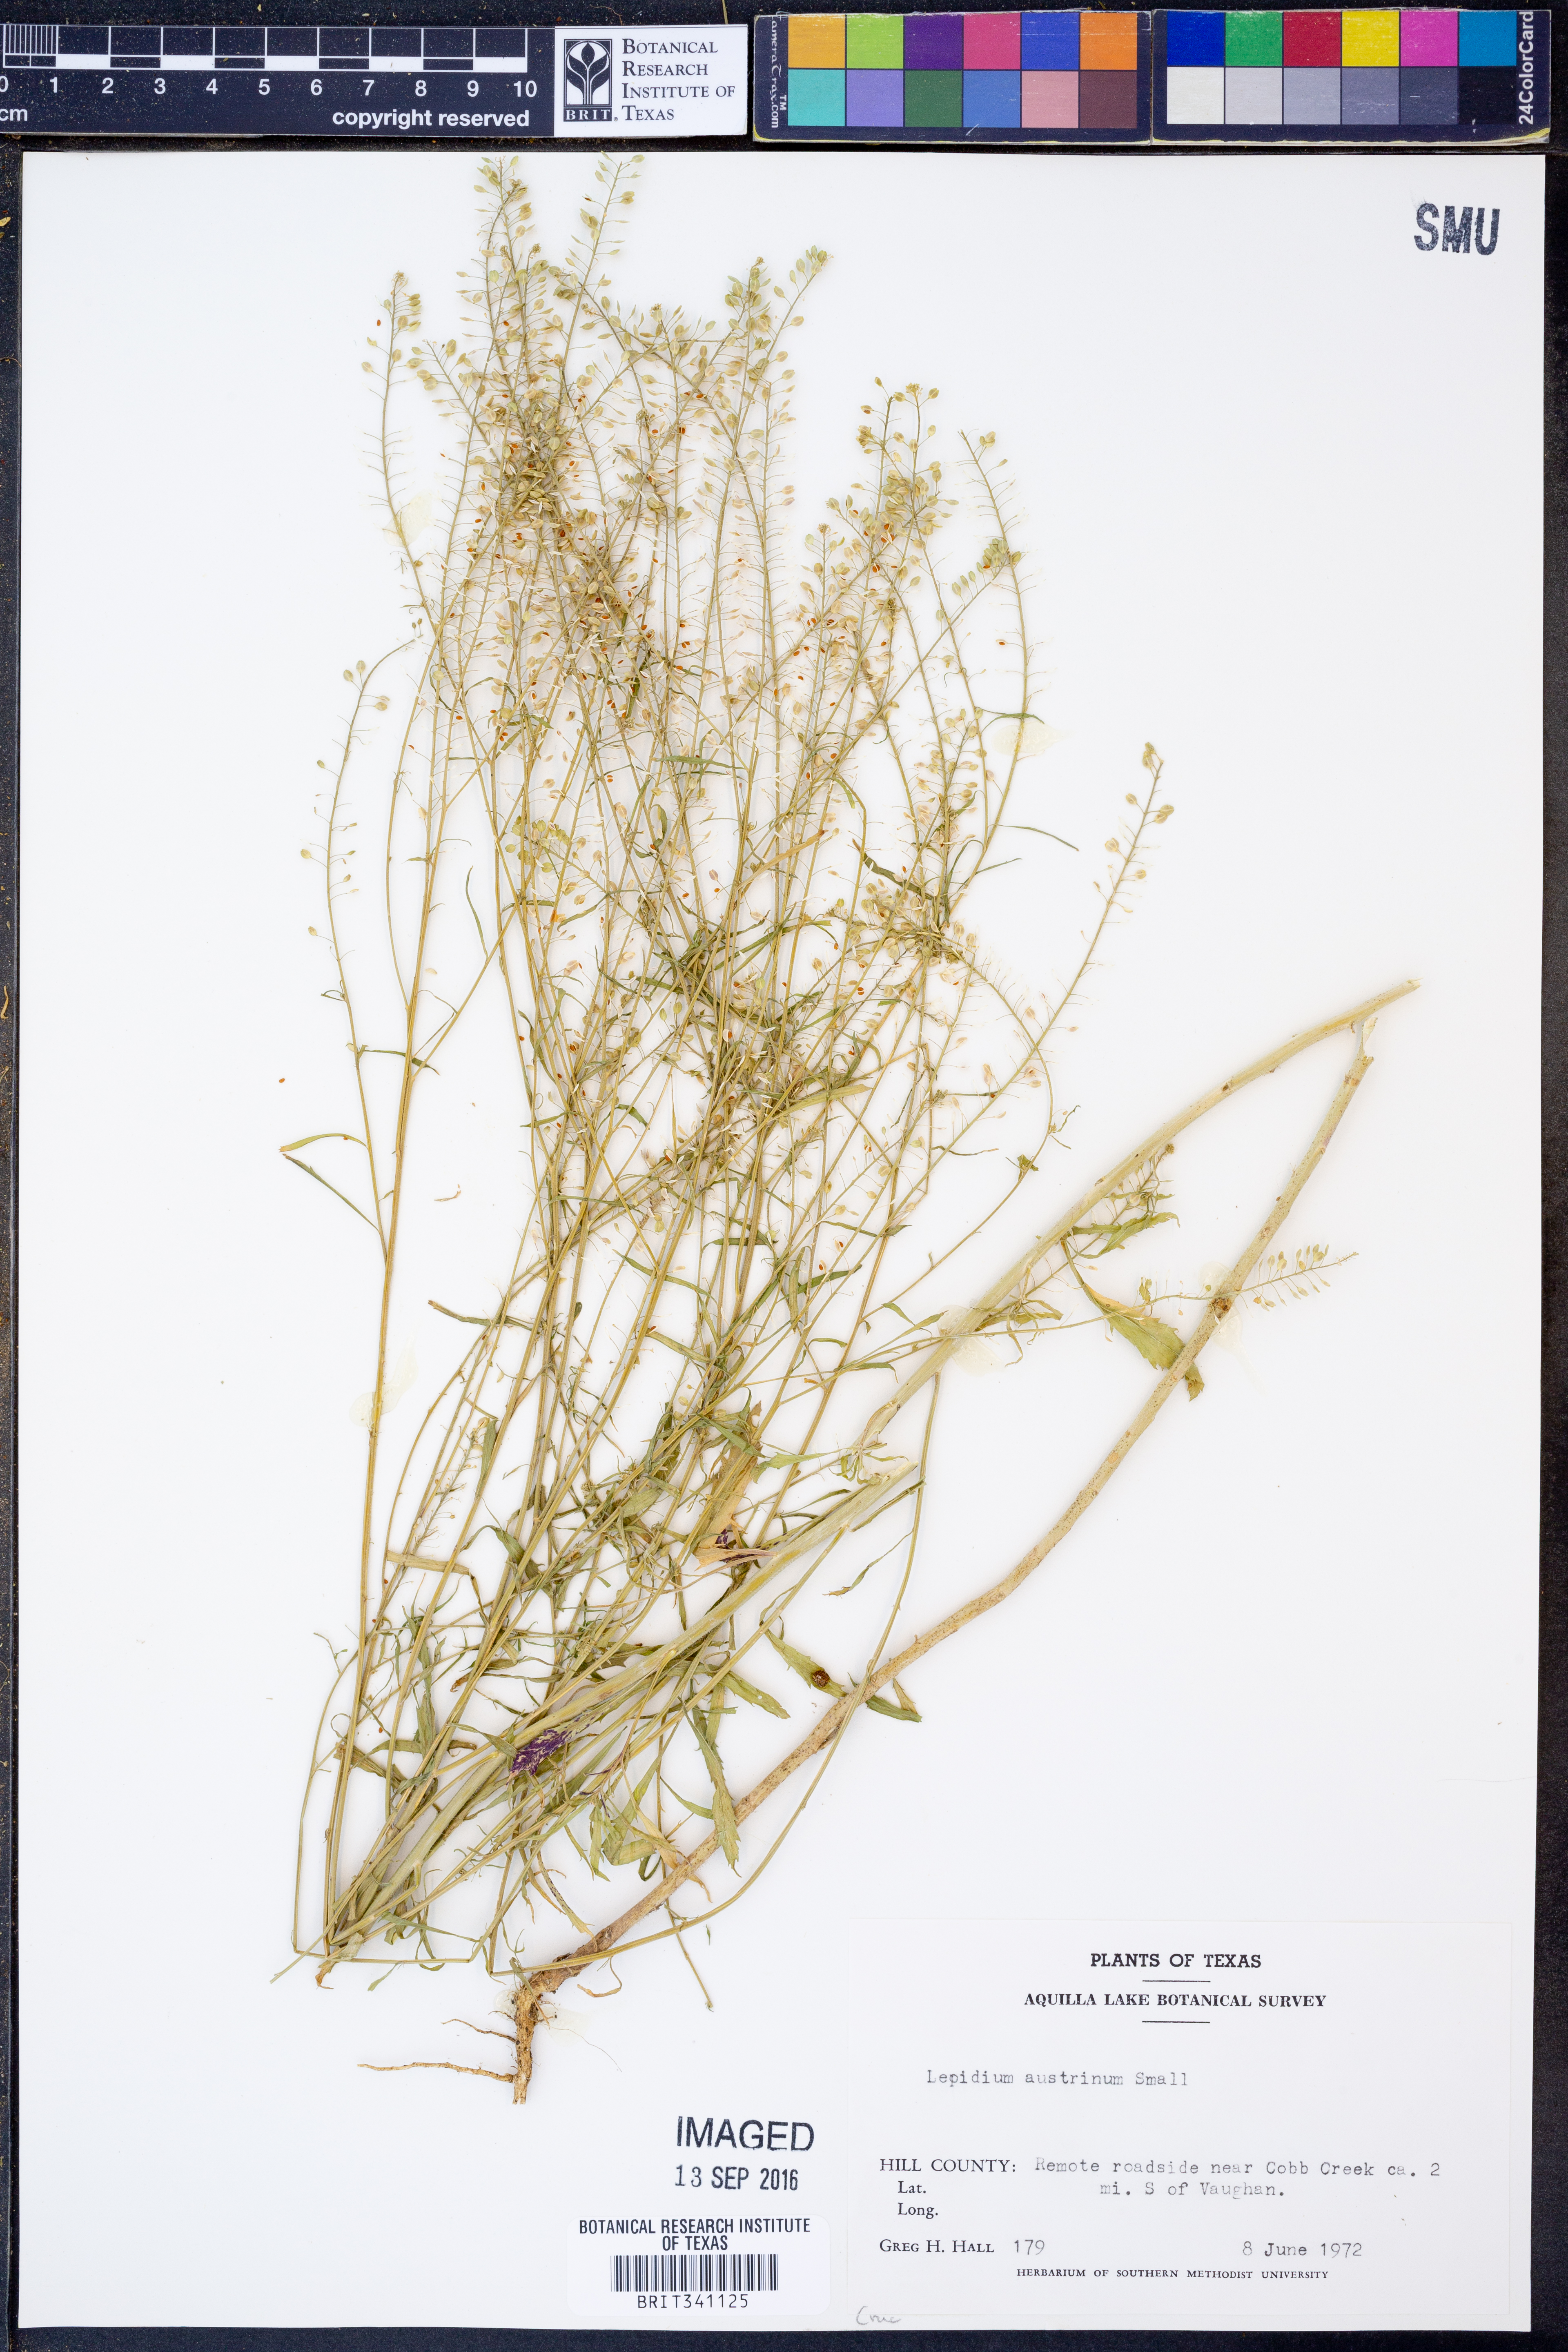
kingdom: Plantae
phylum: Tracheophyta
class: Magnoliopsida
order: Brassicales
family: Brassicaceae
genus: Lepidium
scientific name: Lepidium austrinum
